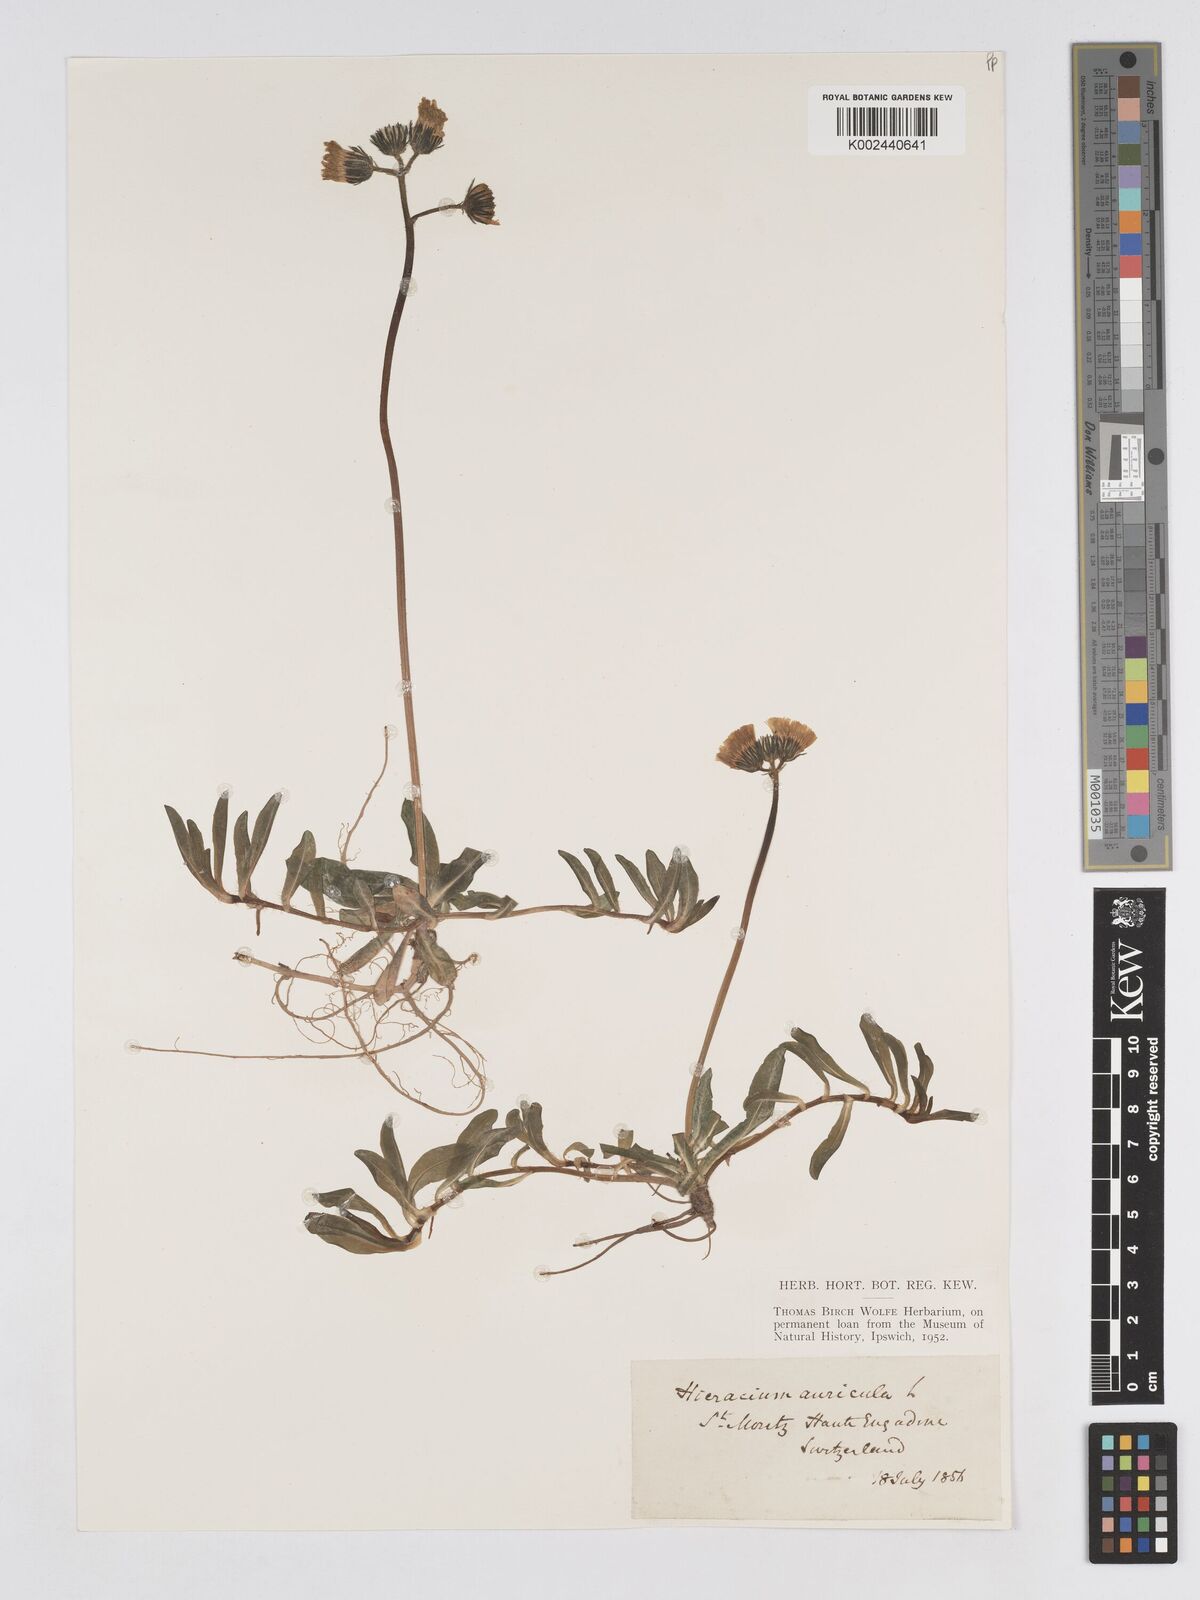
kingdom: Plantae
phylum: Tracheophyta
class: Magnoliopsida
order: Asterales
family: Asteraceae
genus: Pilosella
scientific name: Pilosella floribunda
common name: Glaucous hawkweed
